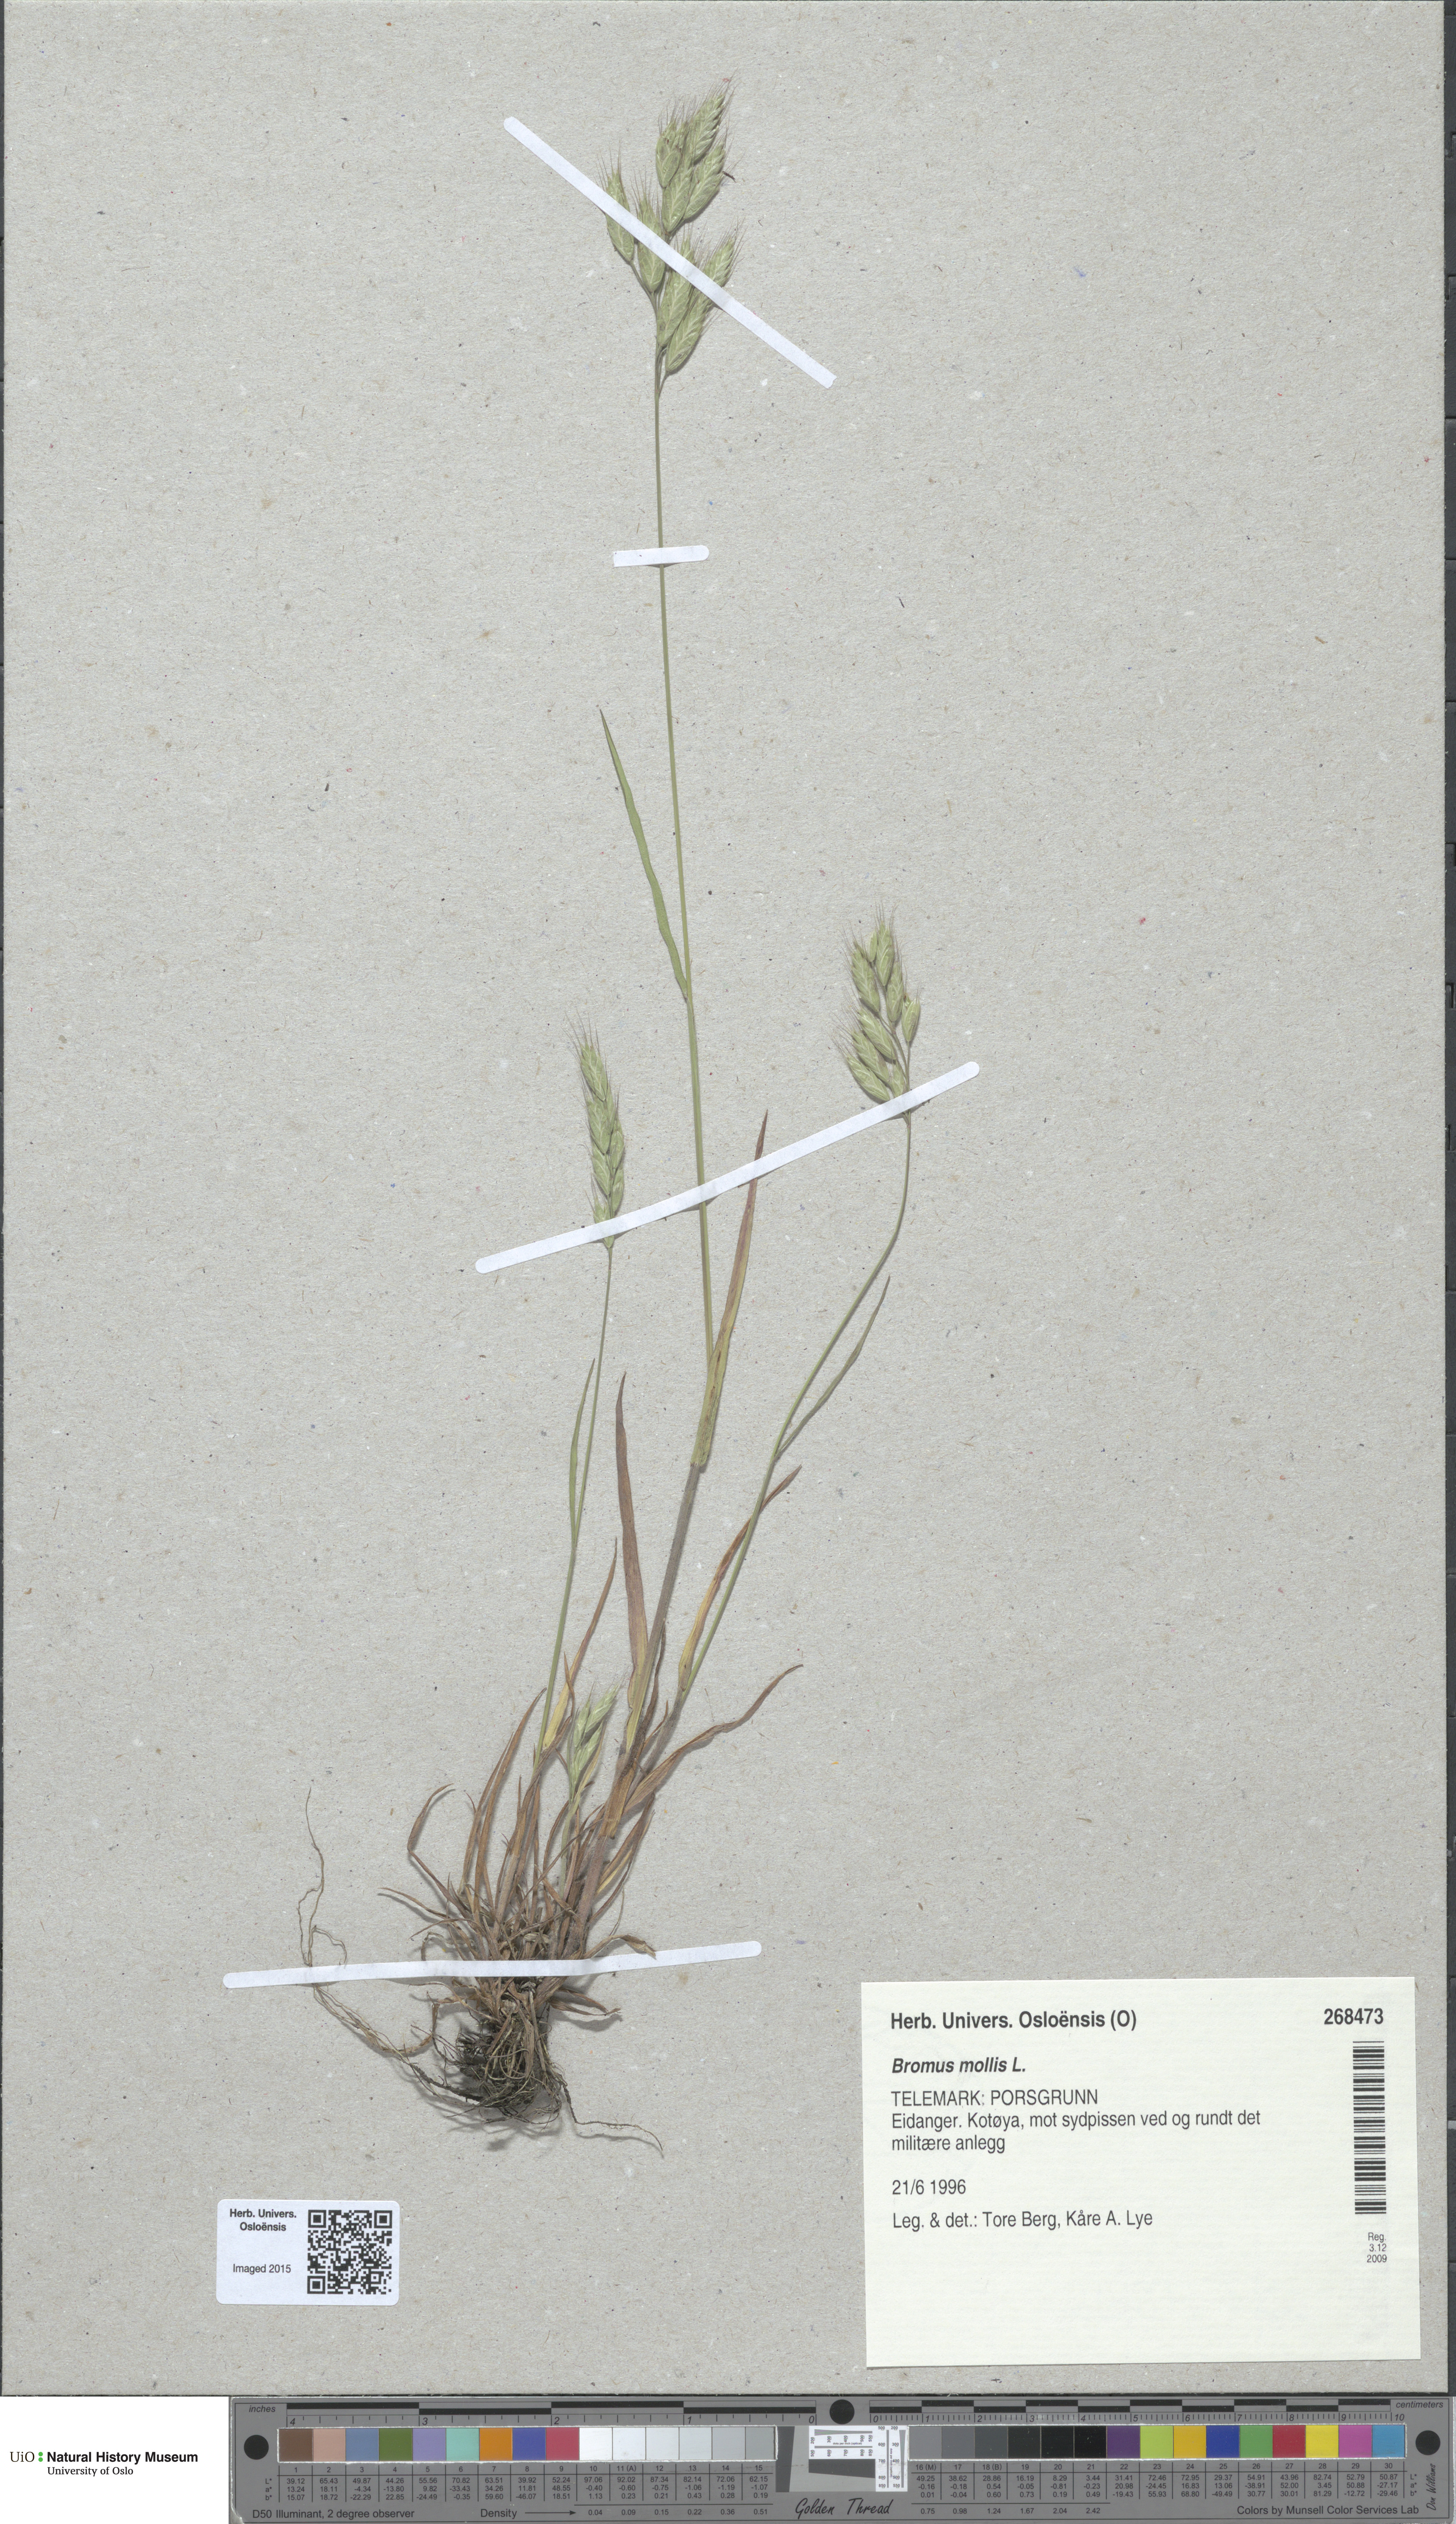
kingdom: Plantae
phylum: Tracheophyta
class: Liliopsida
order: Poales
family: Poaceae
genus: Bromus
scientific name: Bromus hordeaceus
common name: Soft brome
